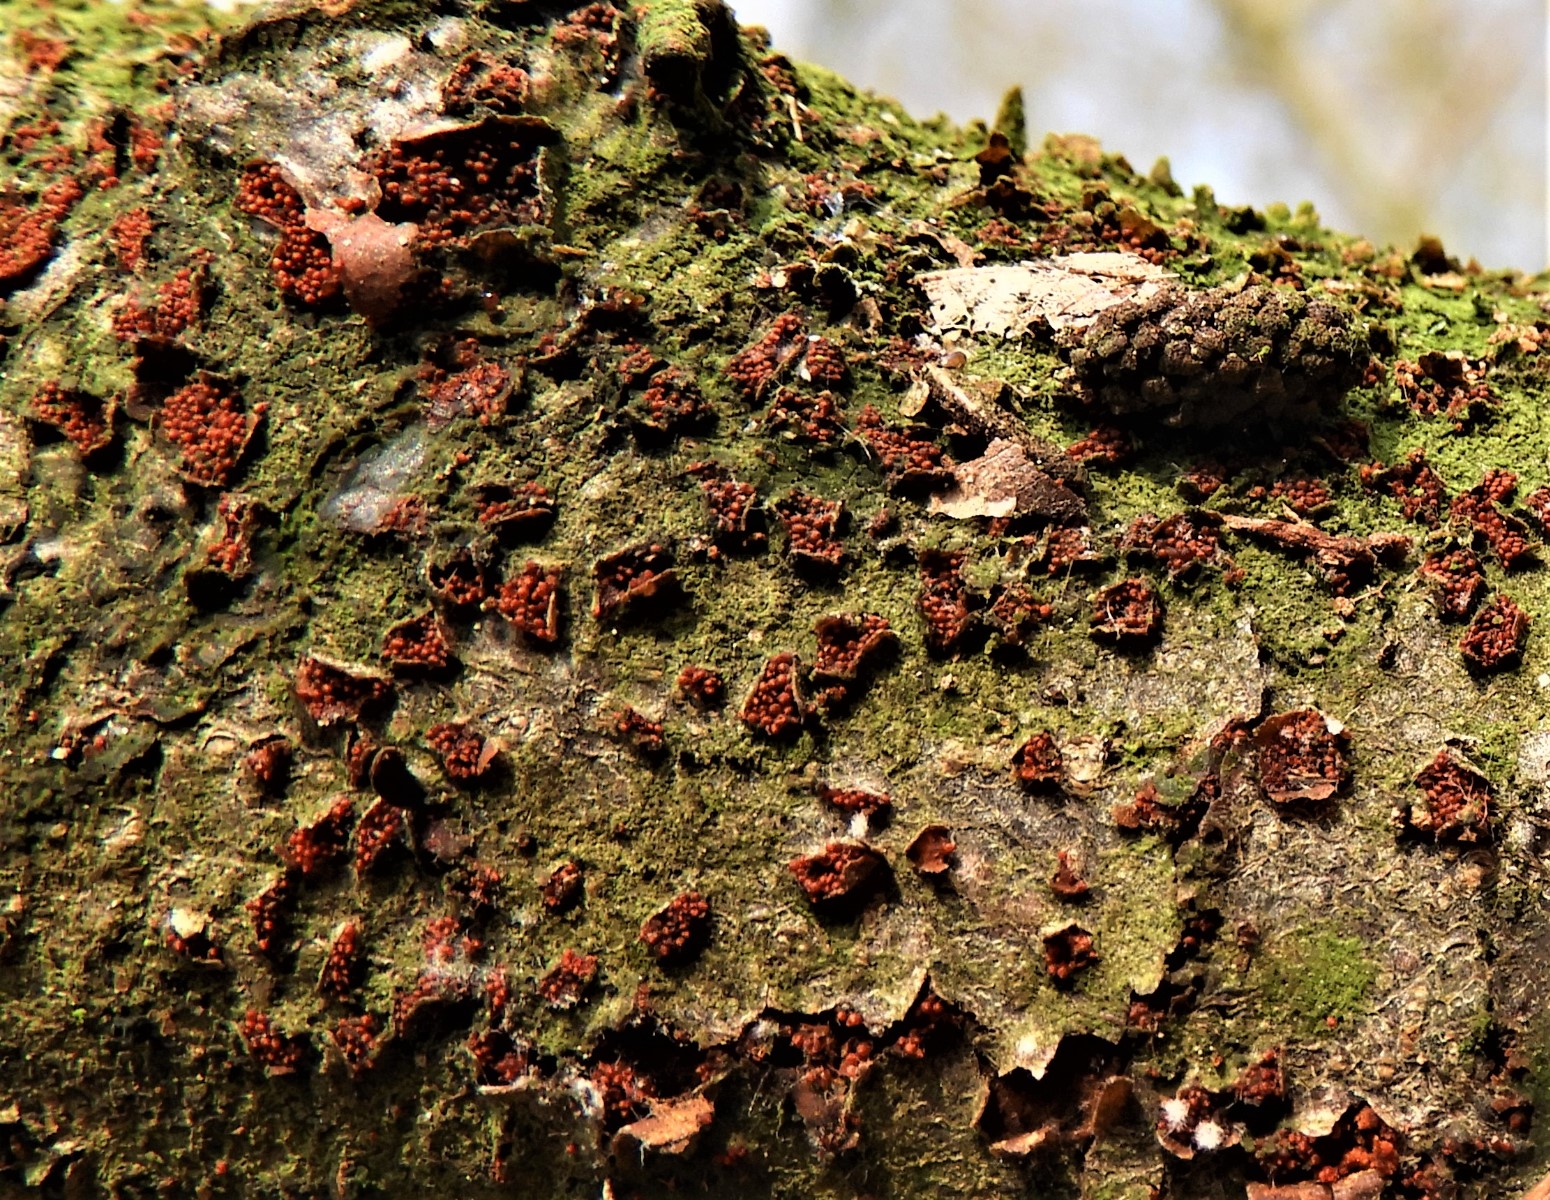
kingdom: Fungi
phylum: Ascomycota
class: Sordariomycetes
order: Hypocreales
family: Nectriaceae
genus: Neonectria
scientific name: Neonectria coccinea
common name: bøgebark-cinnobersvamp
